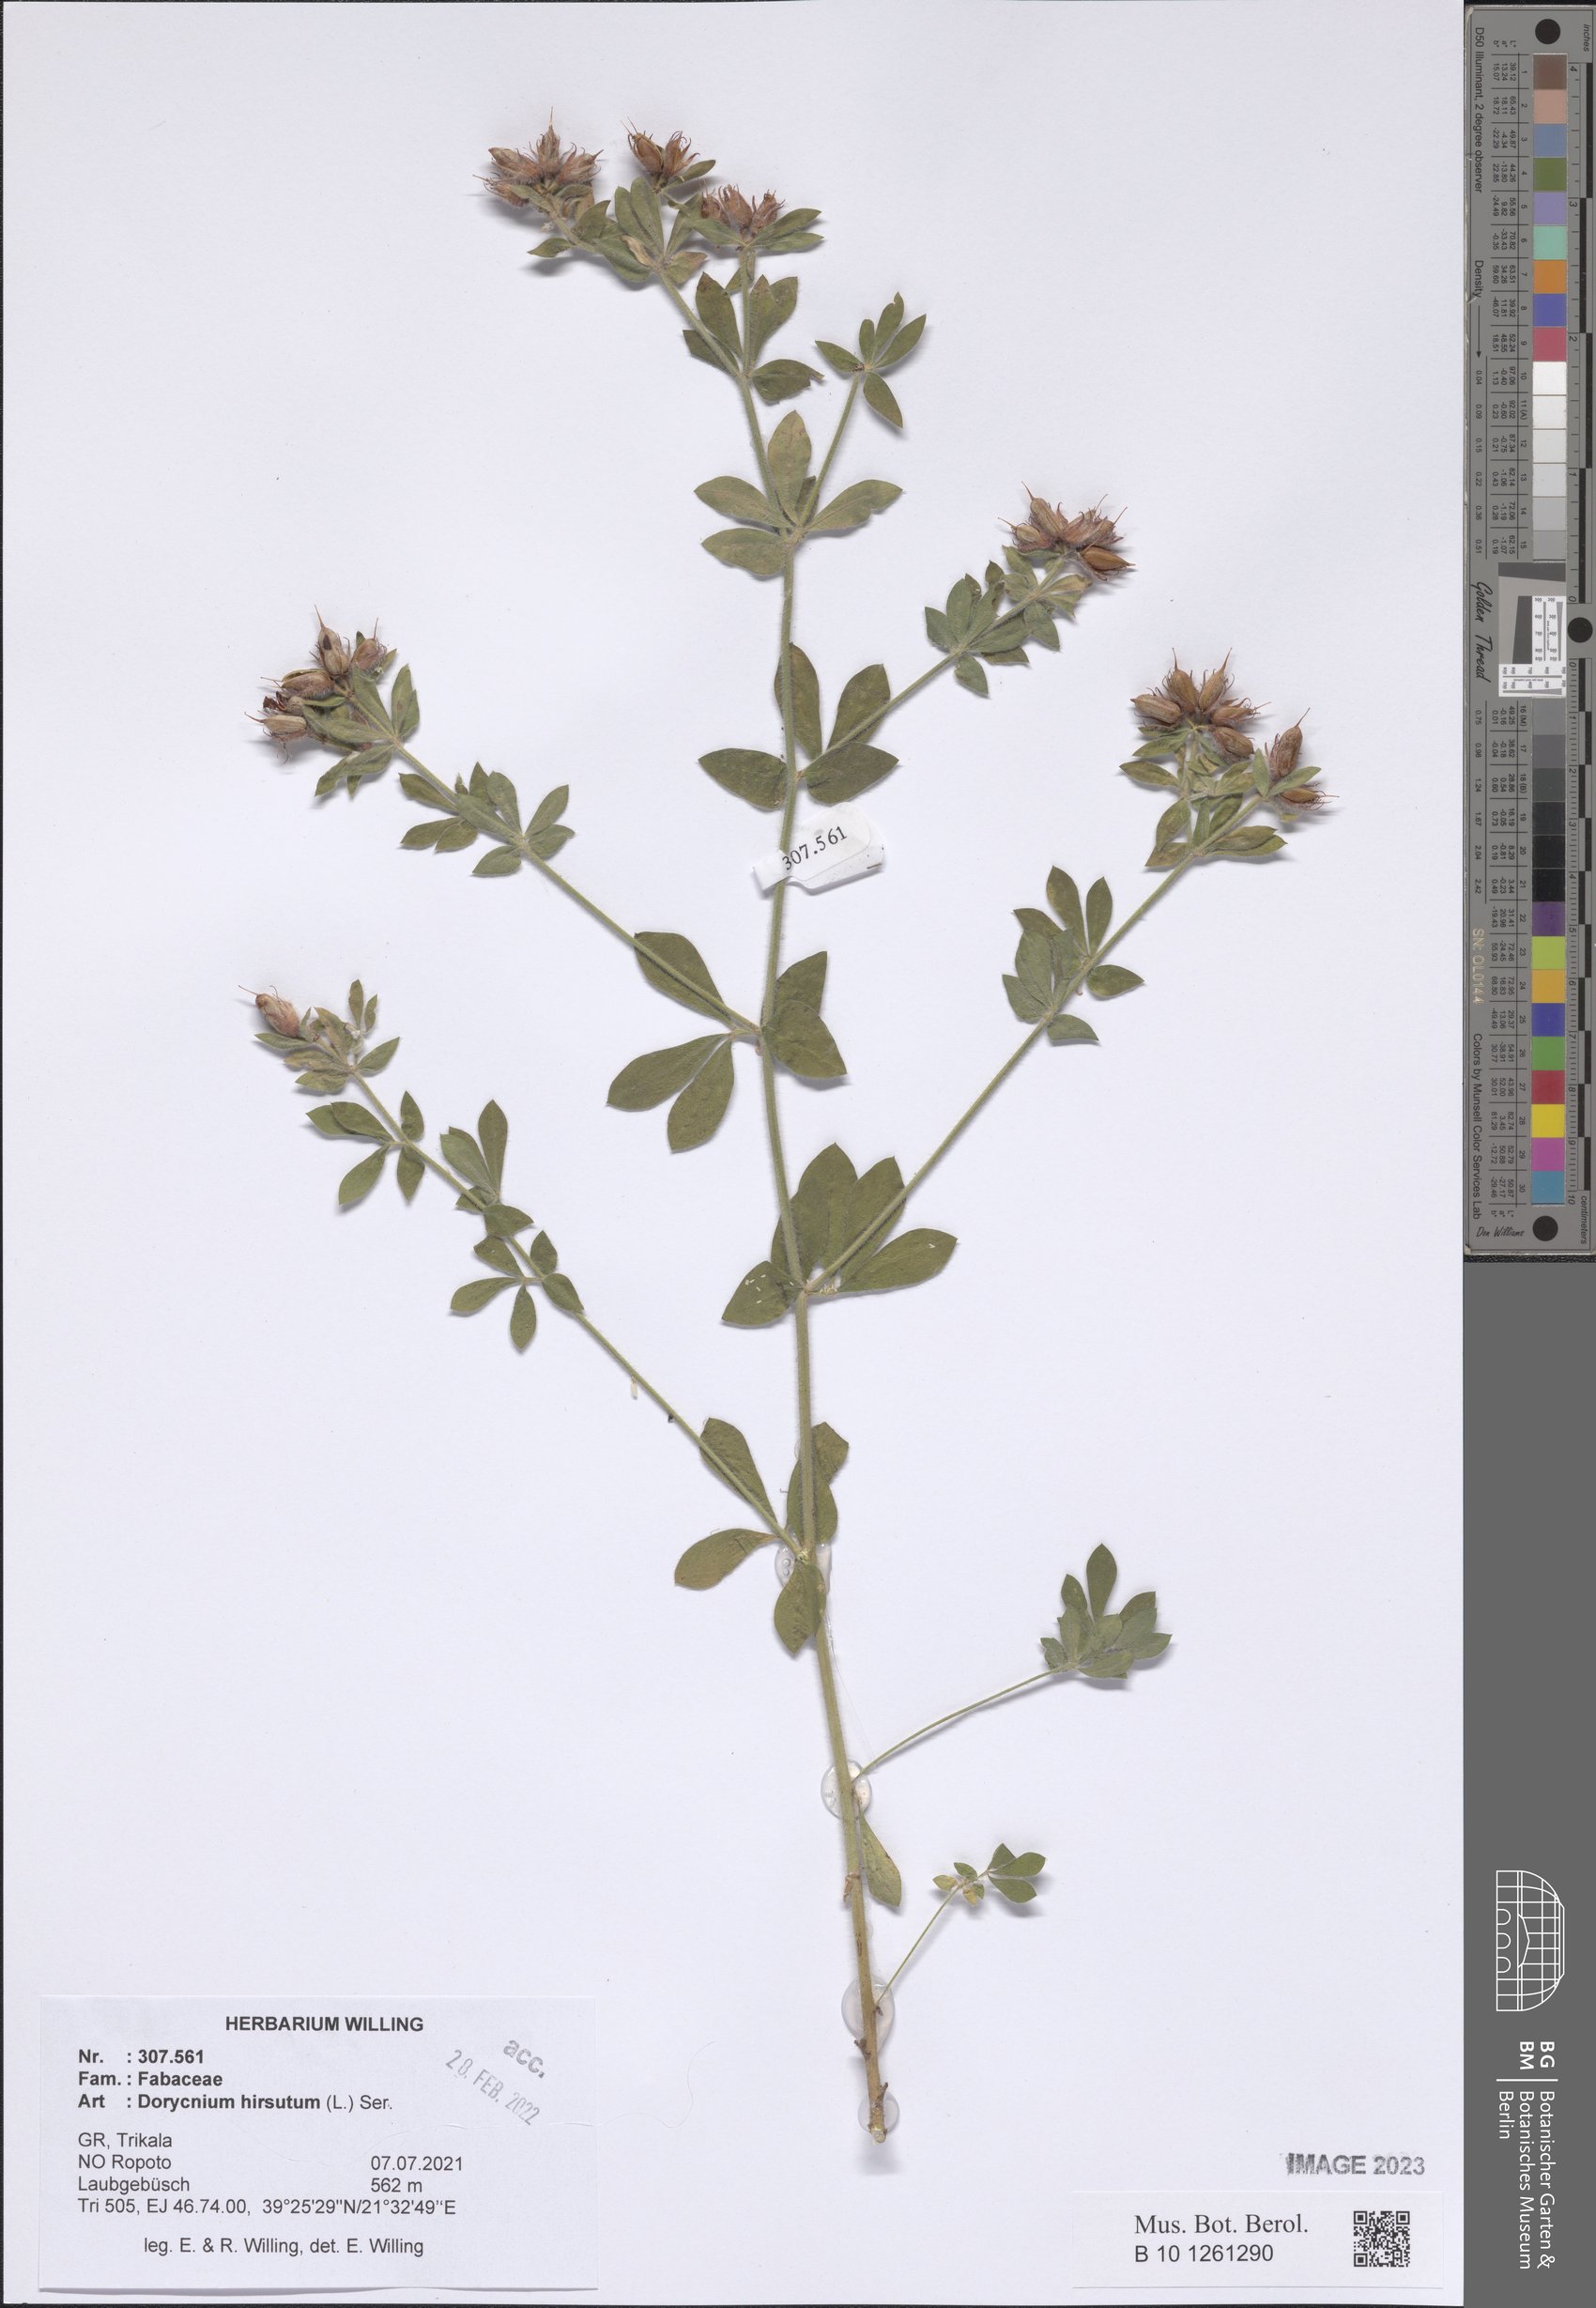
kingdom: Plantae
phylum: Tracheophyta
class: Magnoliopsida
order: Fabales
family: Fabaceae
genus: Lotus
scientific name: Lotus hirsutus
